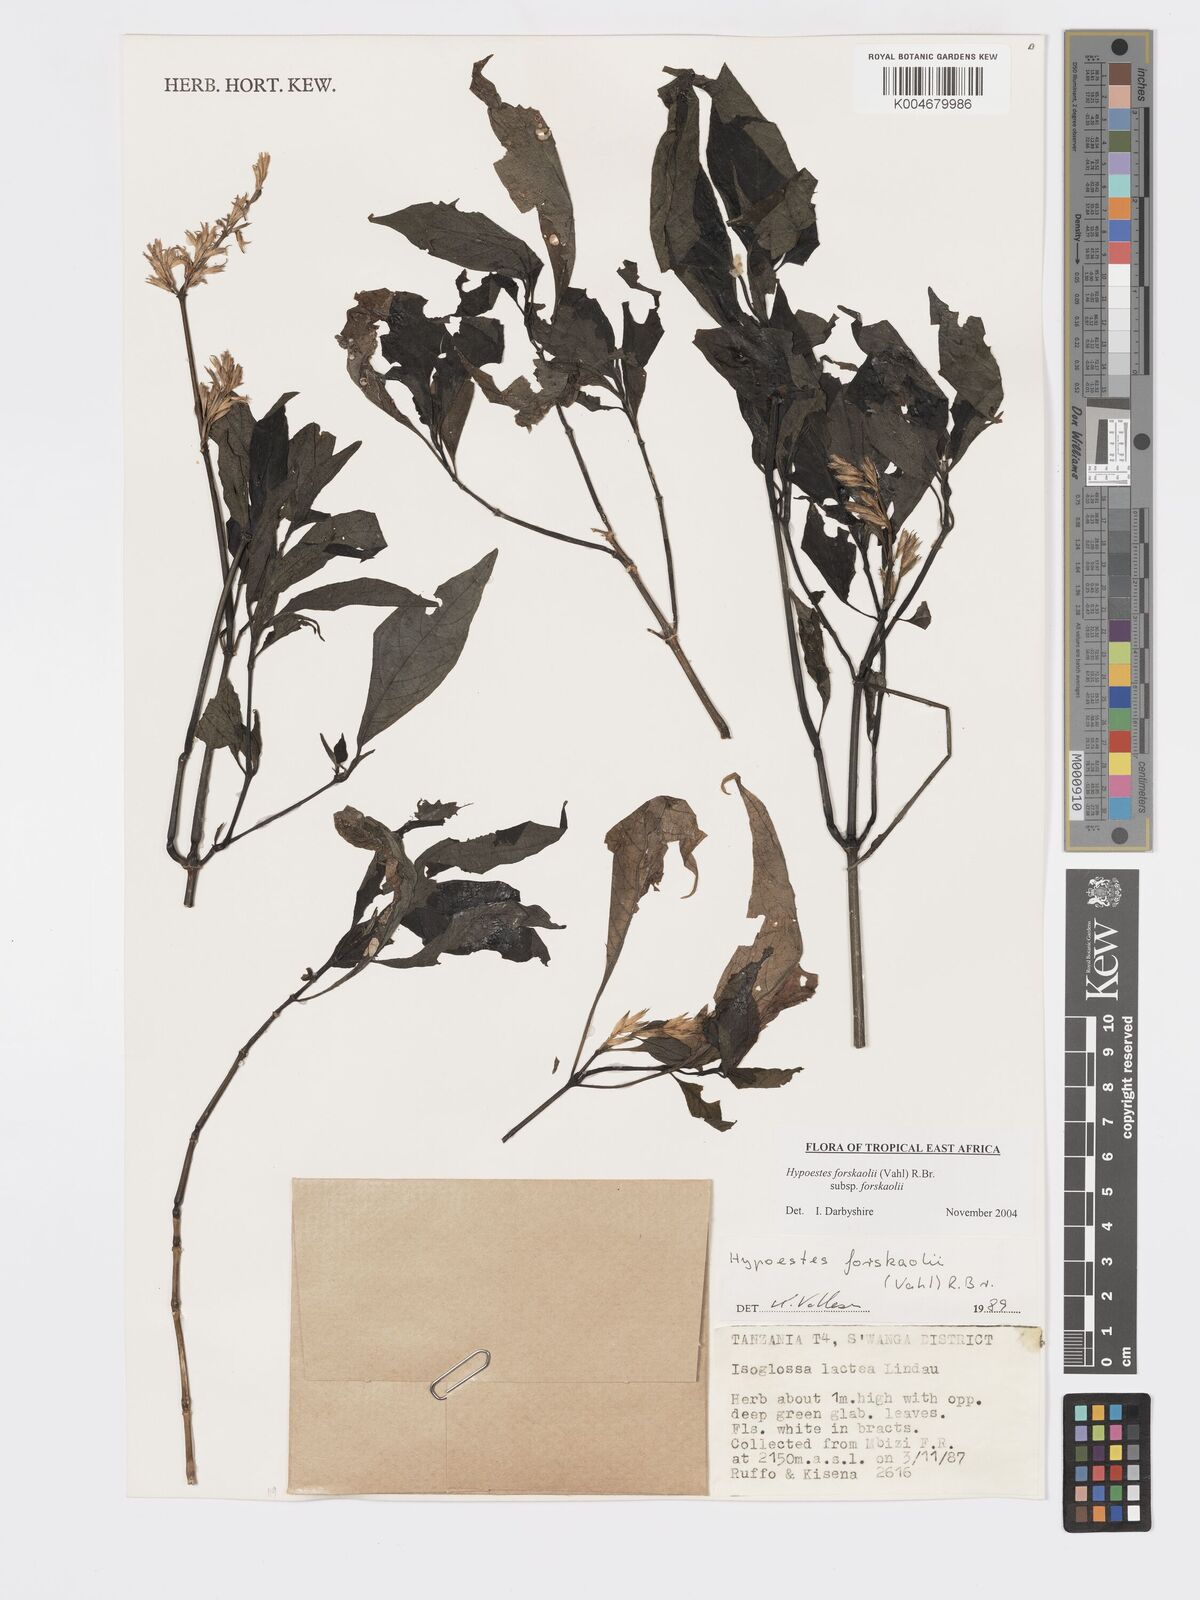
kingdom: Plantae
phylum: Tracheophyta
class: Magnoliopsida
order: Lamiales
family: Acanthaceae
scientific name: Acanthaceae
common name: Acanthaceae
